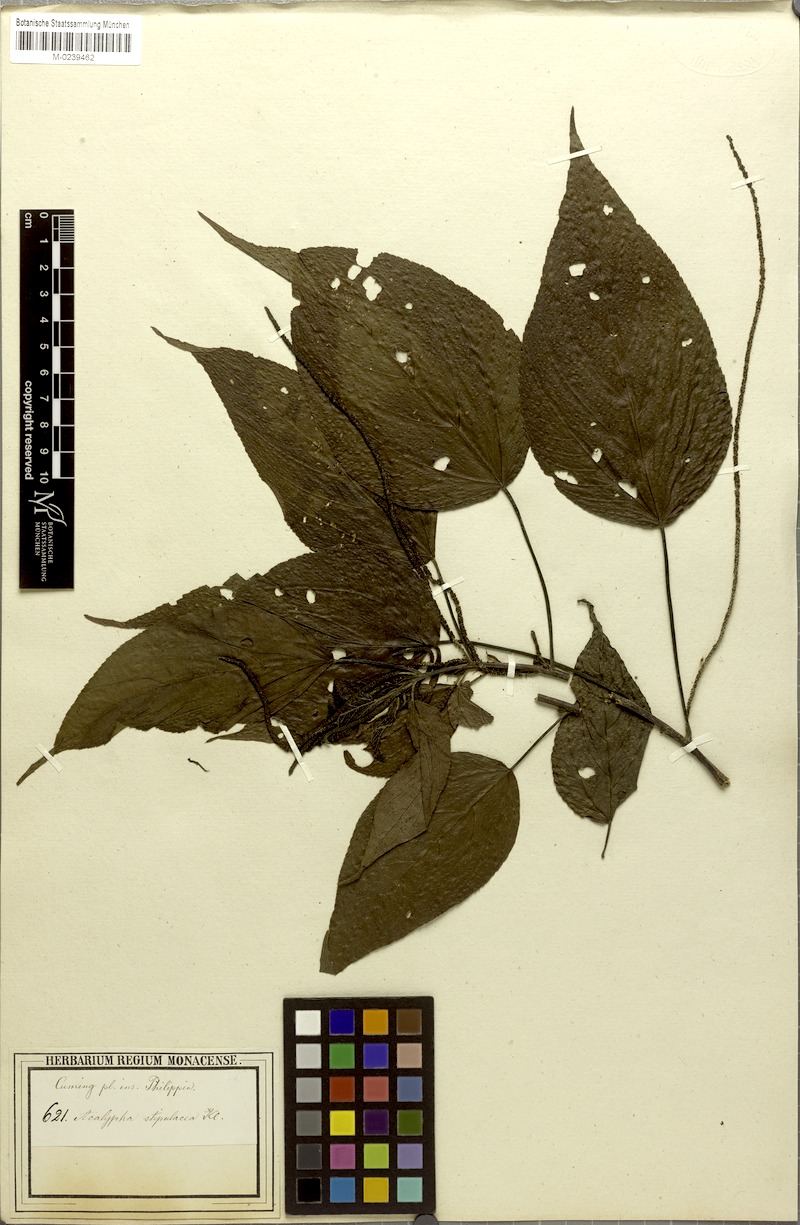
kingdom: Plantae
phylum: Tracheophyta
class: Magnoliopsida
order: Malpighiales
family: Euphorbiaceae
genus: Acalypha
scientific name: Acalypha amentacea
